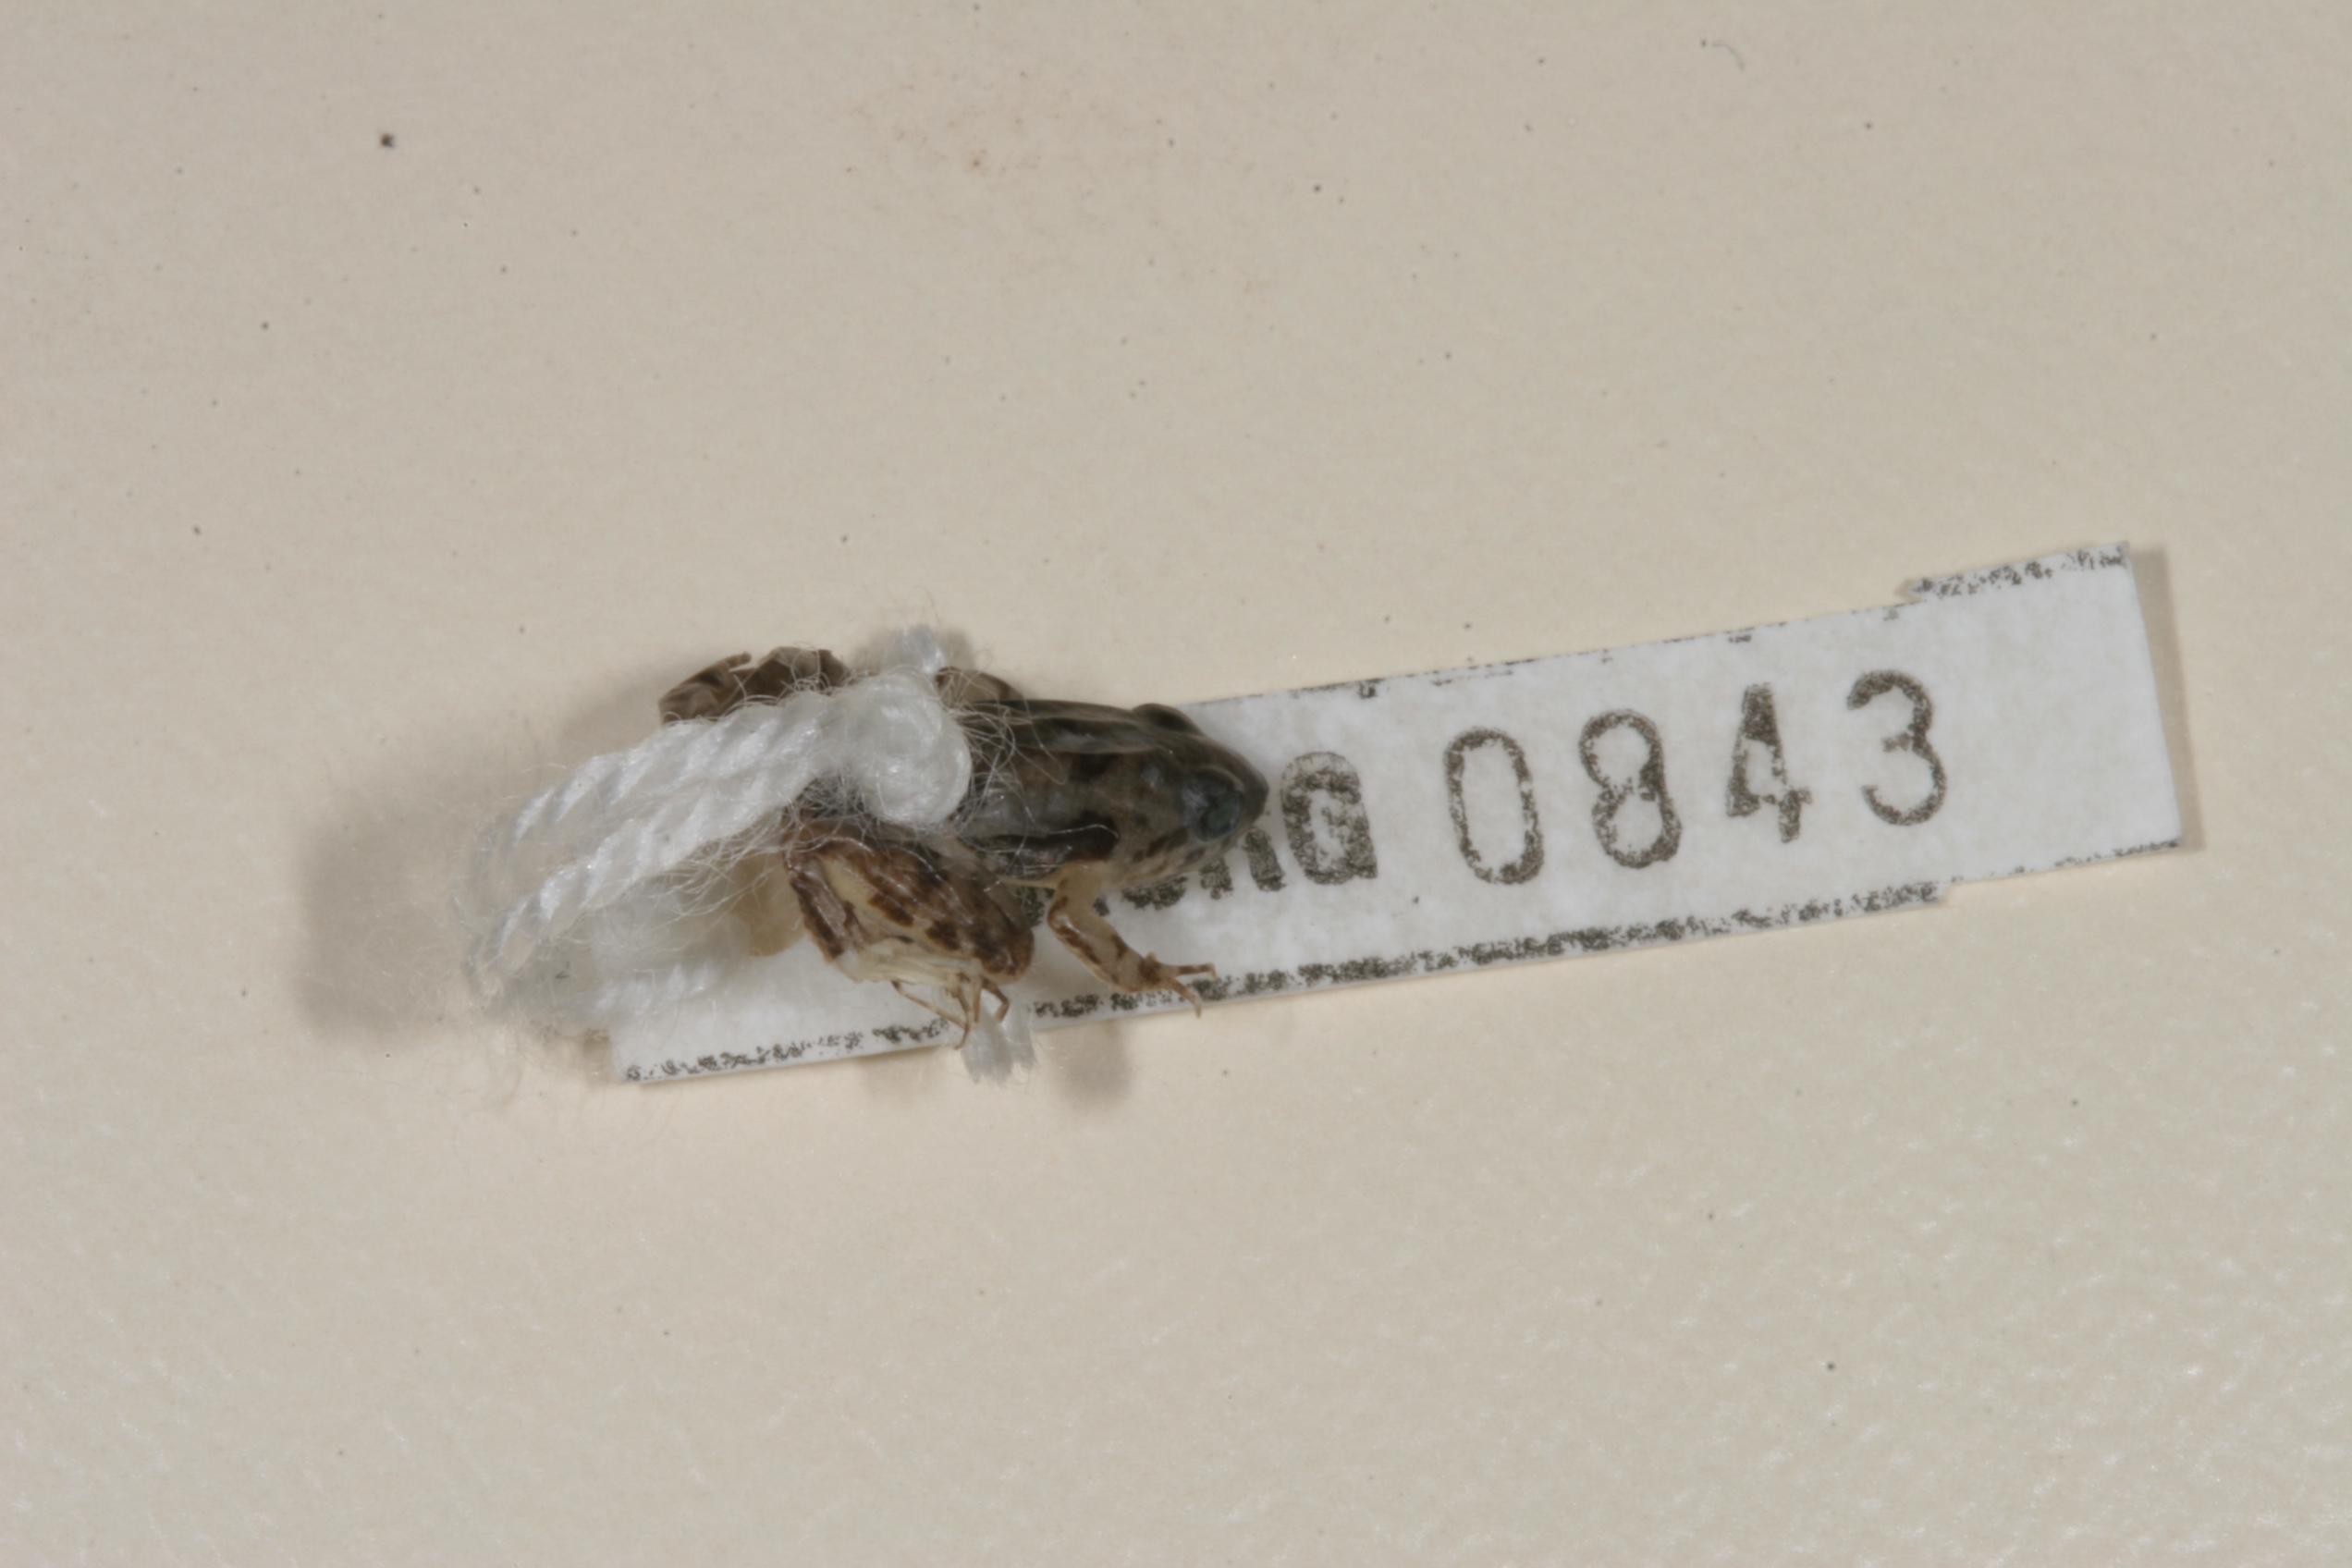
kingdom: Animalia
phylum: Chordata
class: Amphibia
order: Anura
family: Phrynobatrachidae
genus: Phrynobatrachus
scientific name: Phrynobatrachus mababiensis
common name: Dwarf puddle frog
